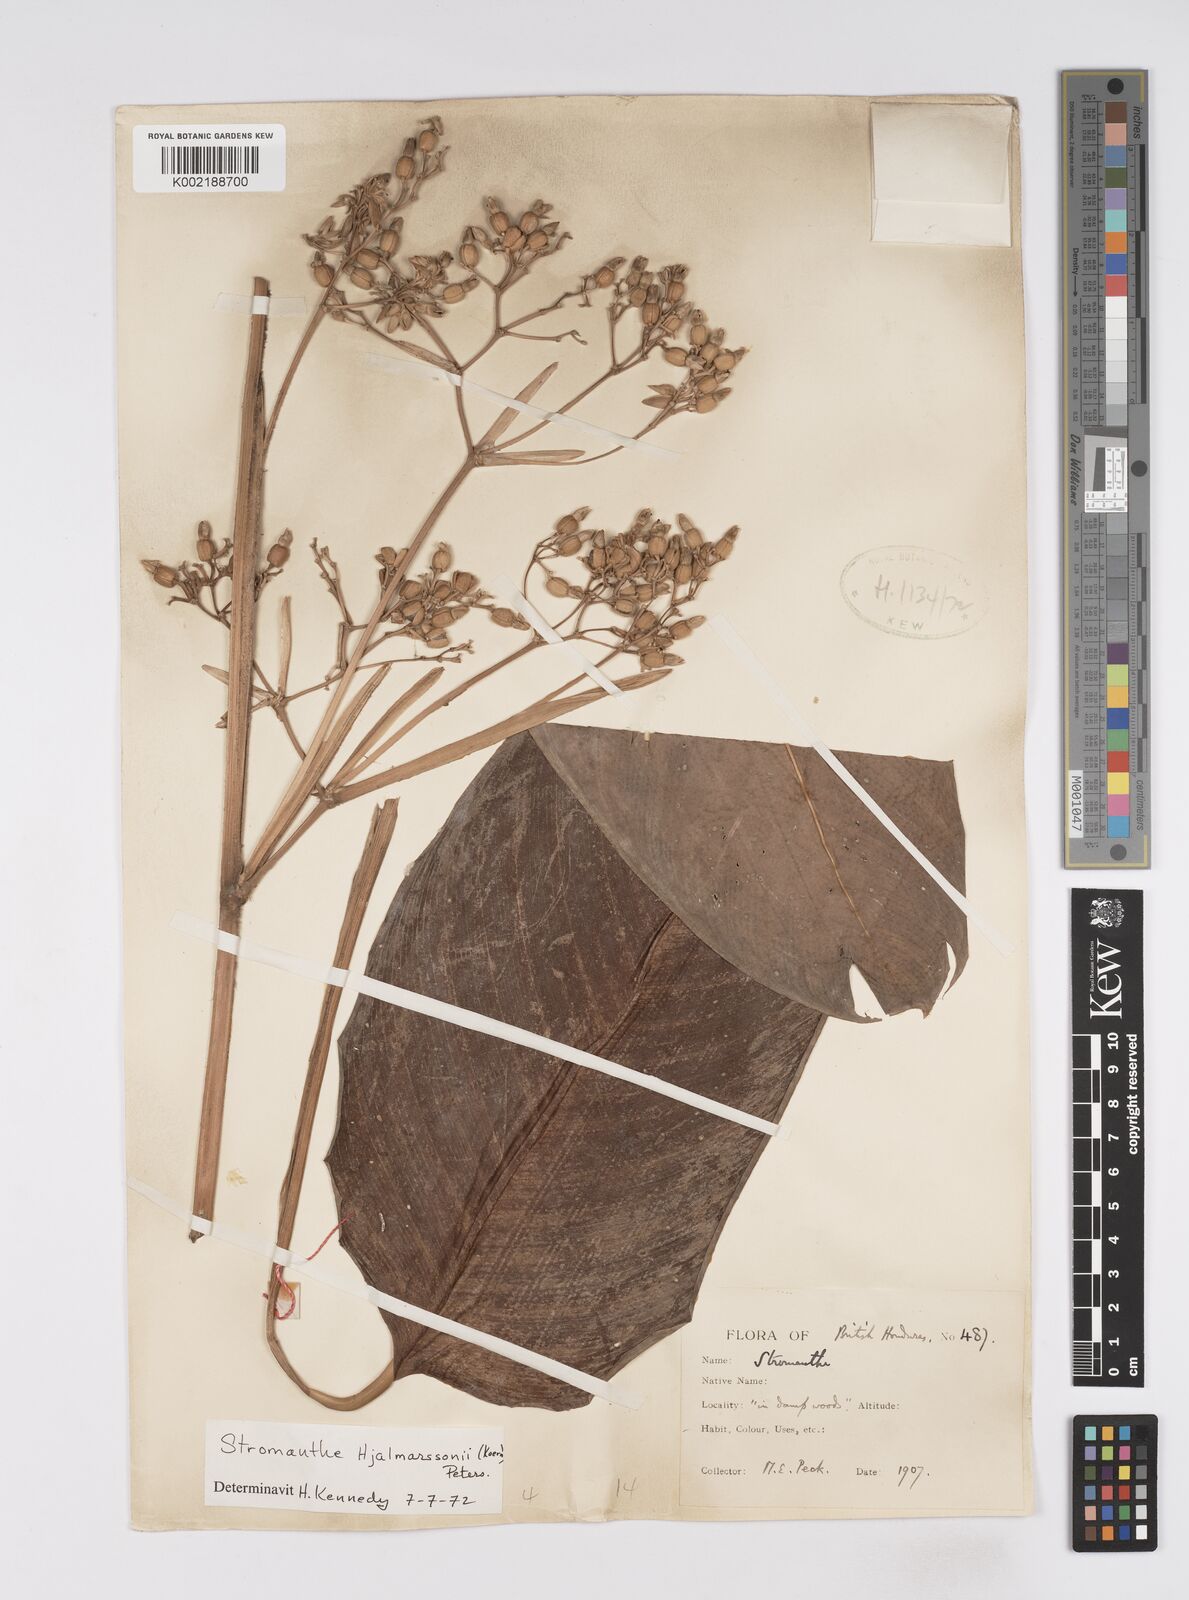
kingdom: Plantae
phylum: Tracheophyta
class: Liliopsida
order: Zingiberales
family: Marantaceae
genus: Stromanthe
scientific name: Stromanthe hjalmarssonii
